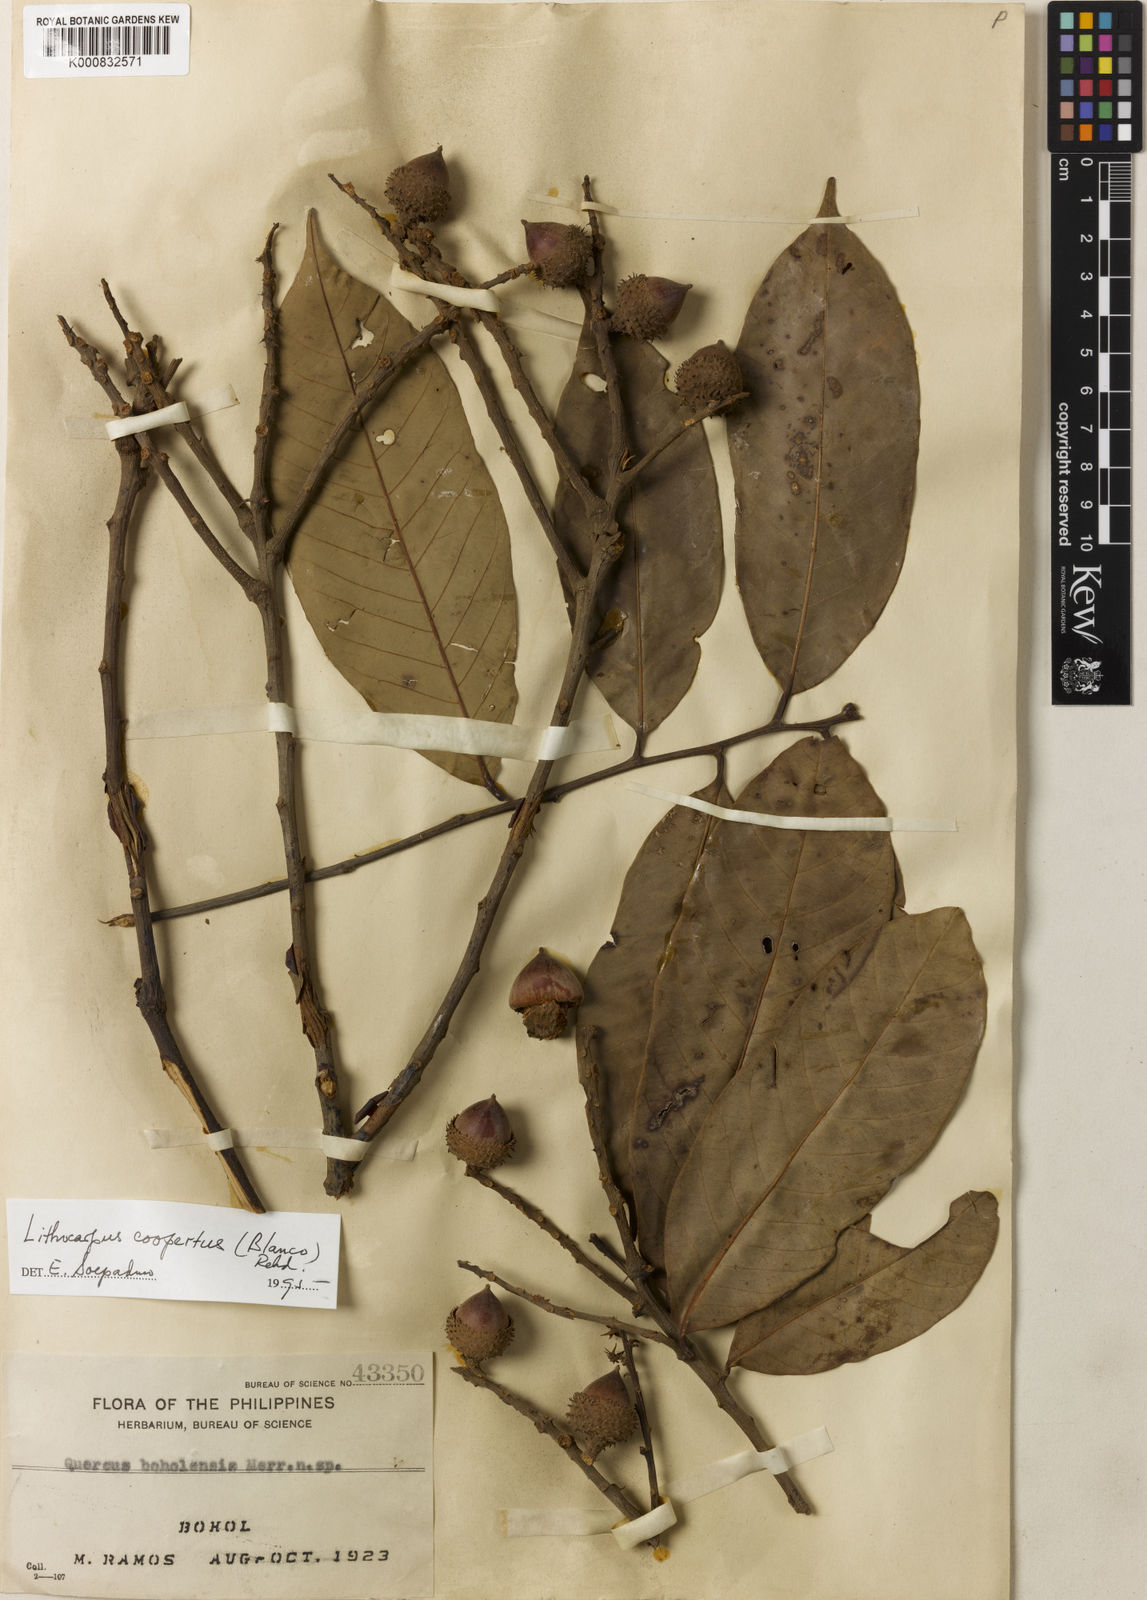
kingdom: Plantae
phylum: Tracheophyta
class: Magnoliopsida
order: Fagales
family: Fagaceae
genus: Lithocarpus
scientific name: Lithocarpus coopertus
